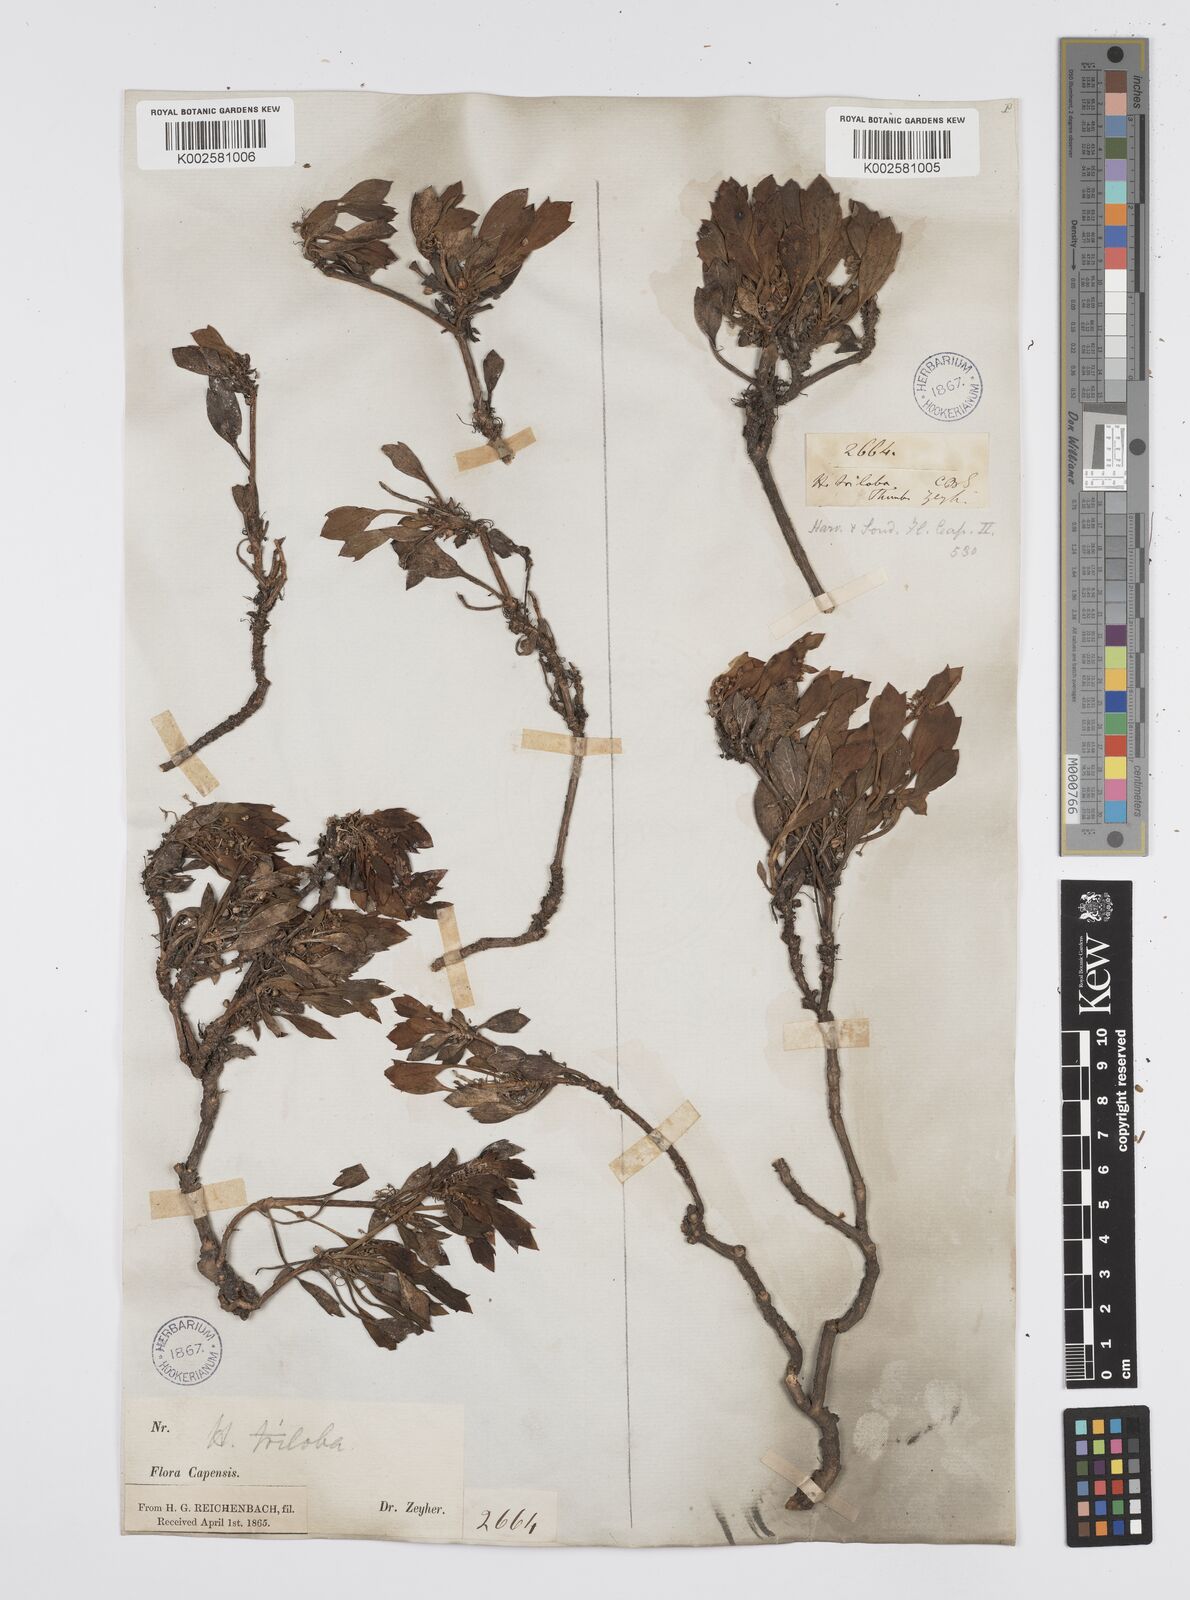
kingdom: Plantae
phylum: Tracheophyta
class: Magnoliopsida
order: Apiales
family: Apiaceae
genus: Centella
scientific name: Centella triloba
